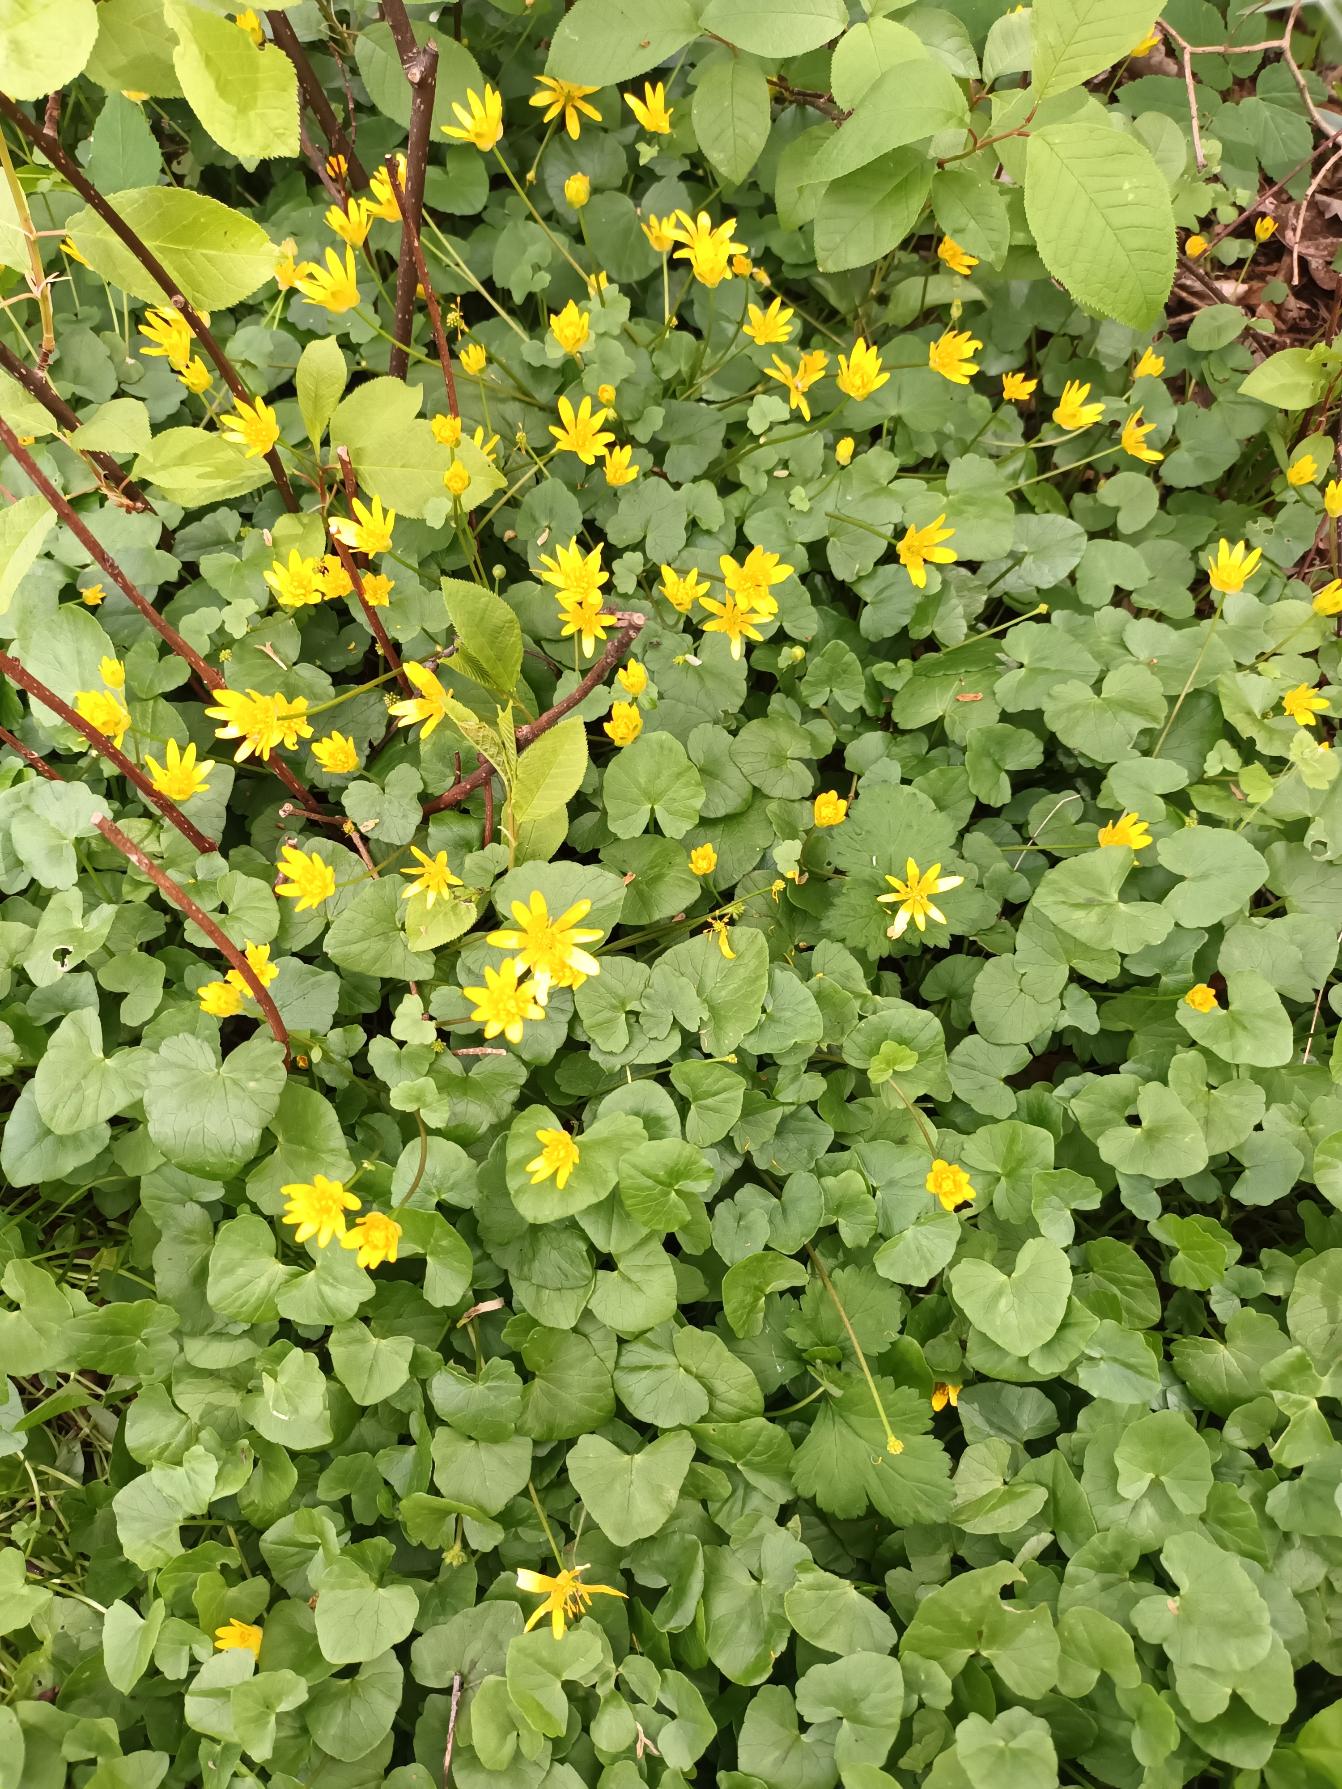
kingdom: Plantae
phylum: Tracheophyta
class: Magnoliopsida
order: Ranunculales
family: Ranunculaceae
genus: Ficaria
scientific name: Ficaria verna
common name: Vorterod
